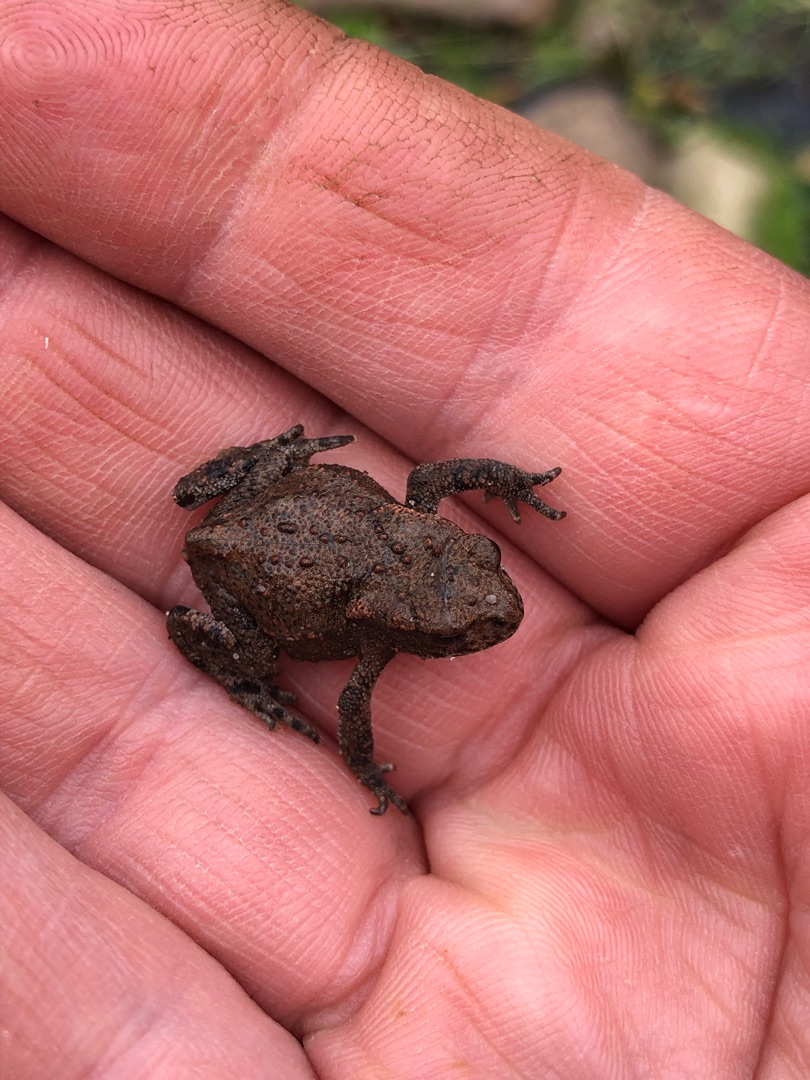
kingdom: Animalia
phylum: Chordata
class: Amphibia
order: Anura
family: Bufonidae
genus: Bufo
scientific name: Bufo bufo
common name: Skrubtudse
